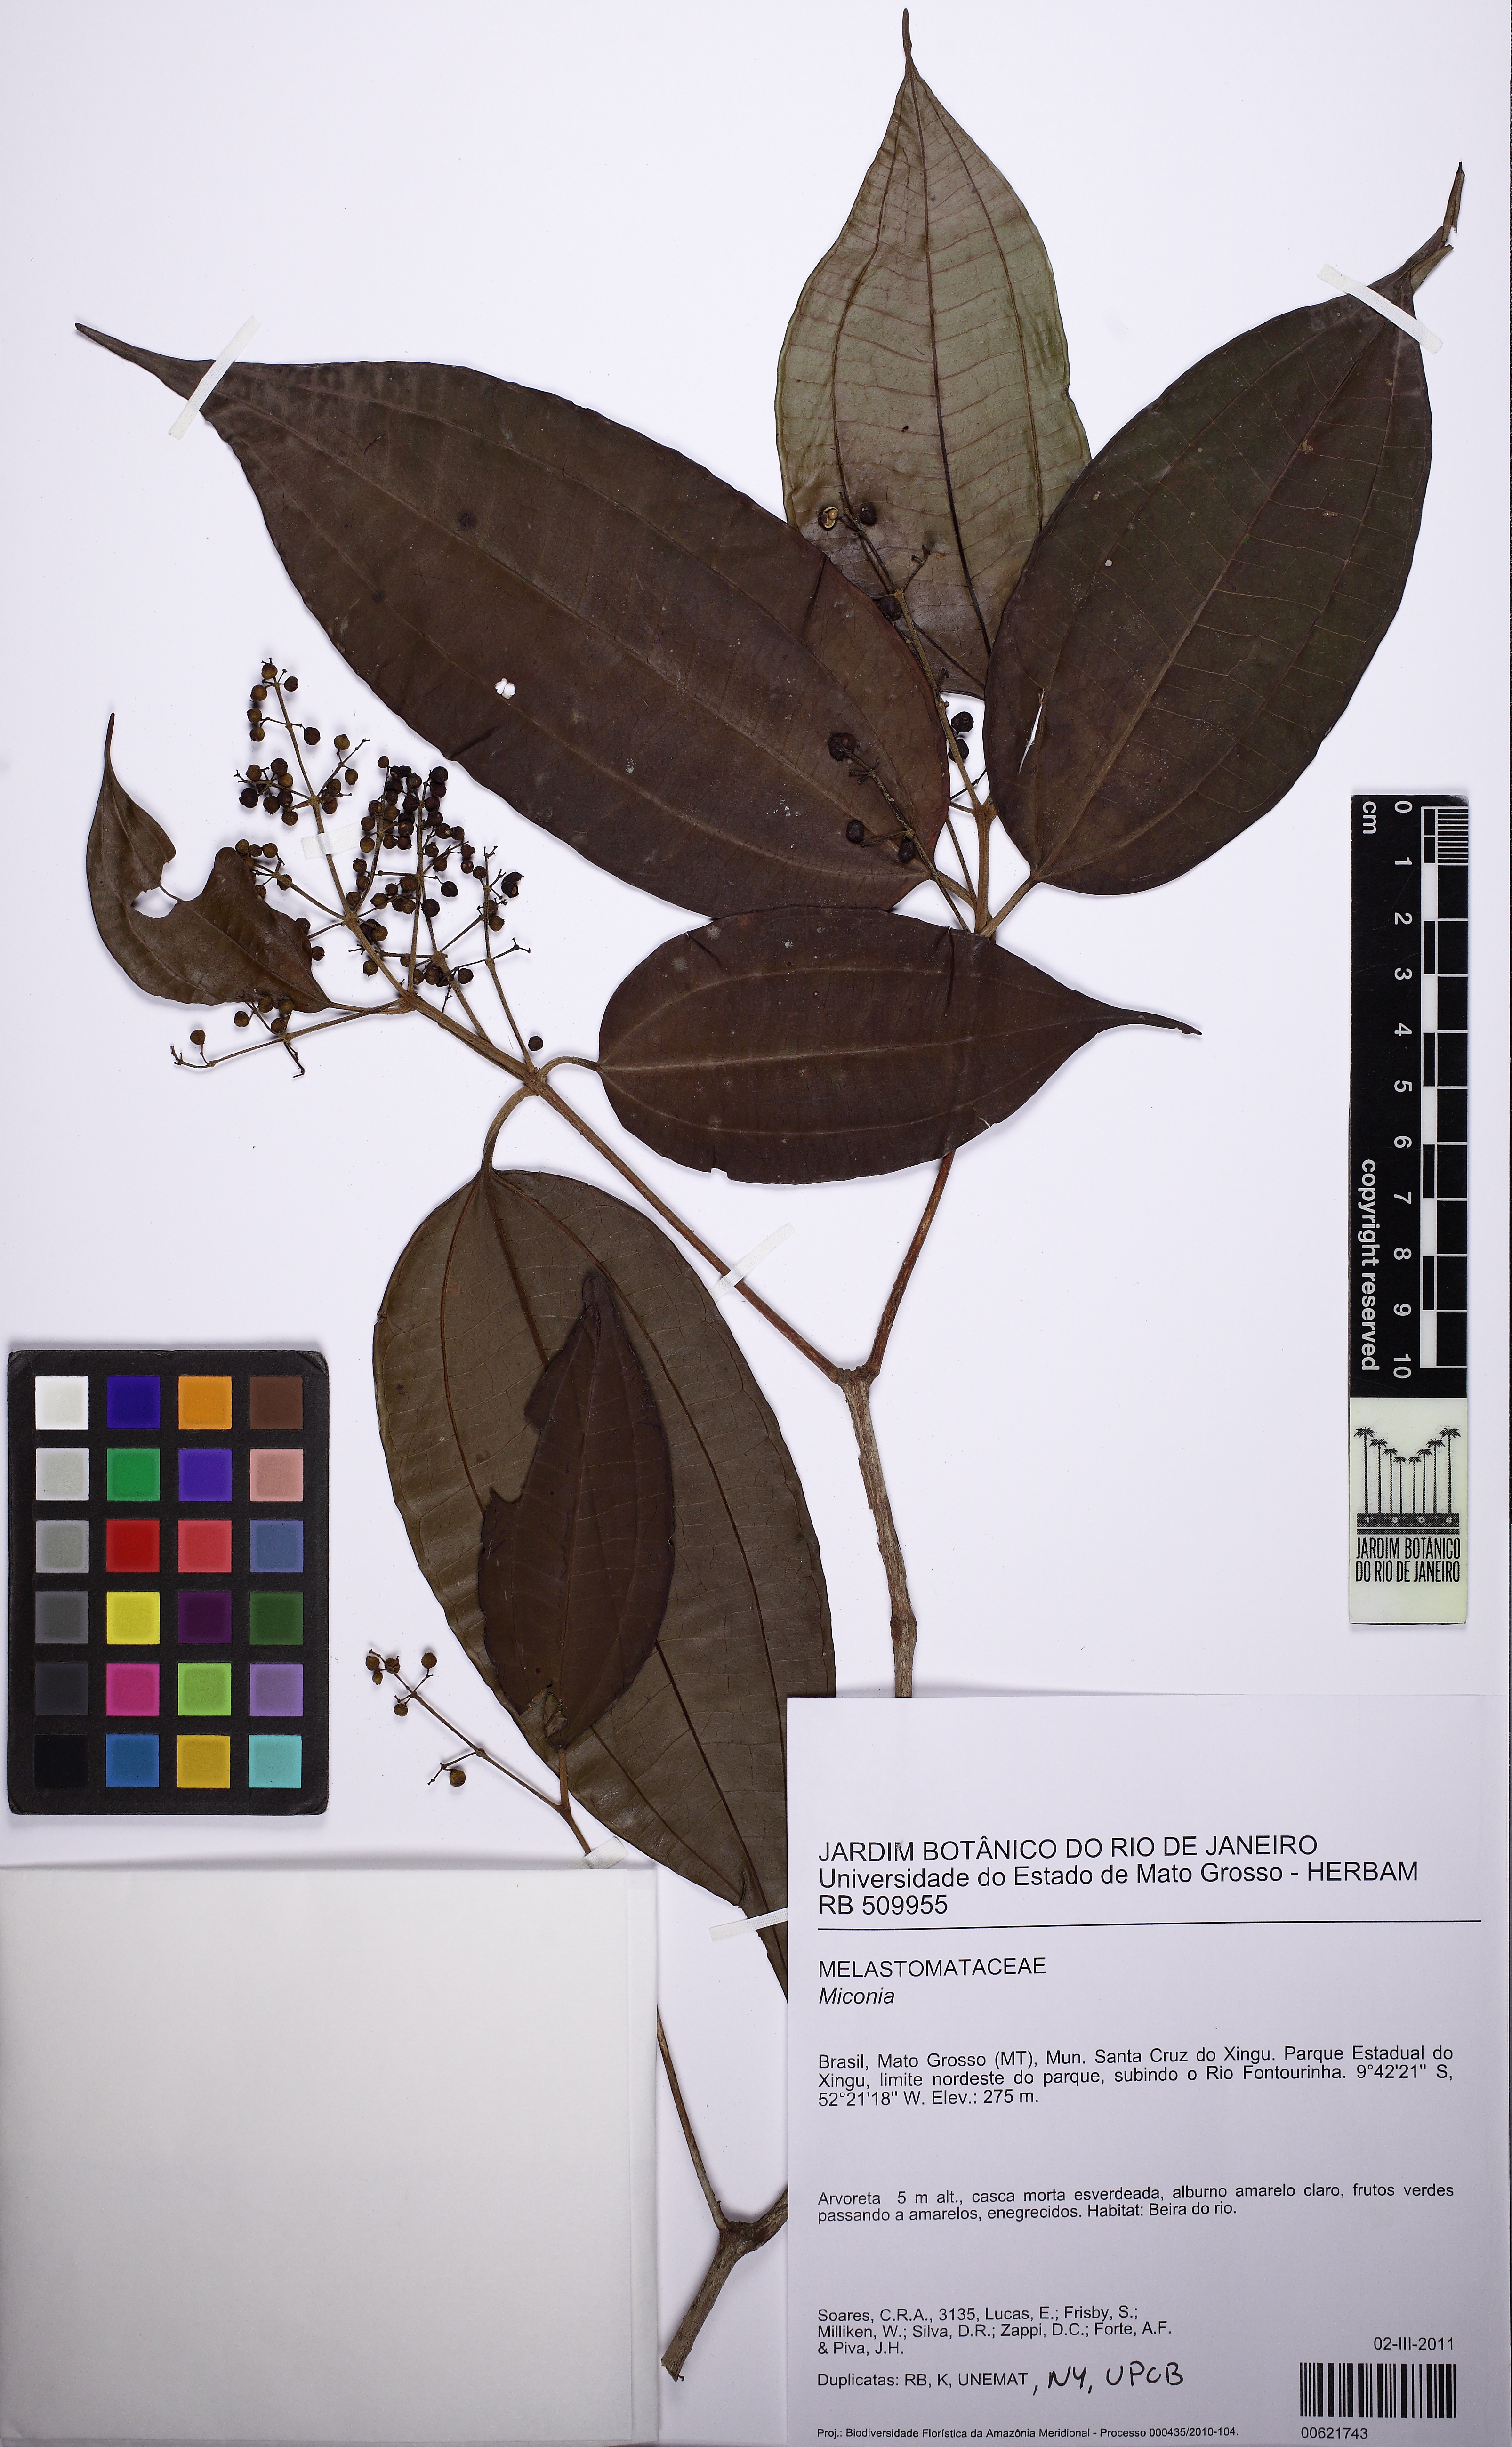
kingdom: Plantae
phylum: Tracheophyta
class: Magnoliopsida
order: Myrtales
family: Melastomataceae
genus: Miconia
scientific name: Miconia eugenioides
